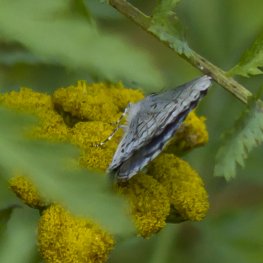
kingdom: Animalia
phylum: Arthropoda
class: Insecta
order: Lepidoptera
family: Lycaenidae
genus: Cyaniris
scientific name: Cyaniris neglecta
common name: Summer Azure
